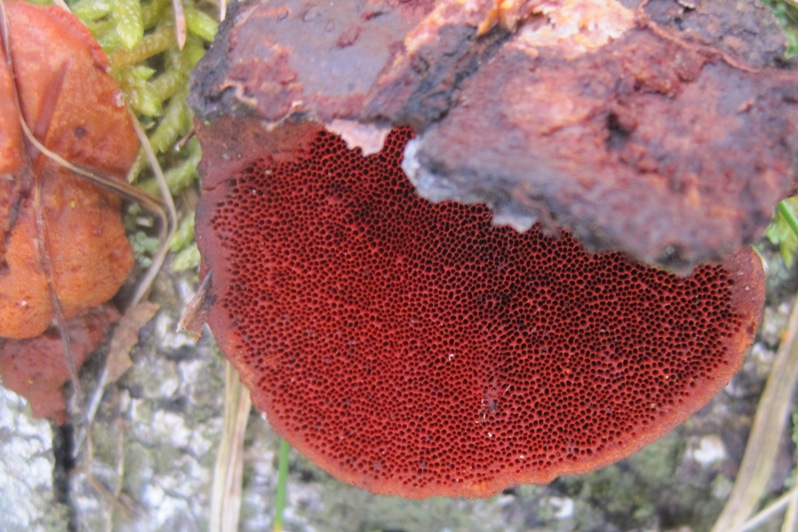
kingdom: Fungi
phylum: Basidiomycota
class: Agaricomycetes
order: Polyporales
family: Polyporaceae
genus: Trametes
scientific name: Trametes cinnabarina
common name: cinnoberporesvamp
